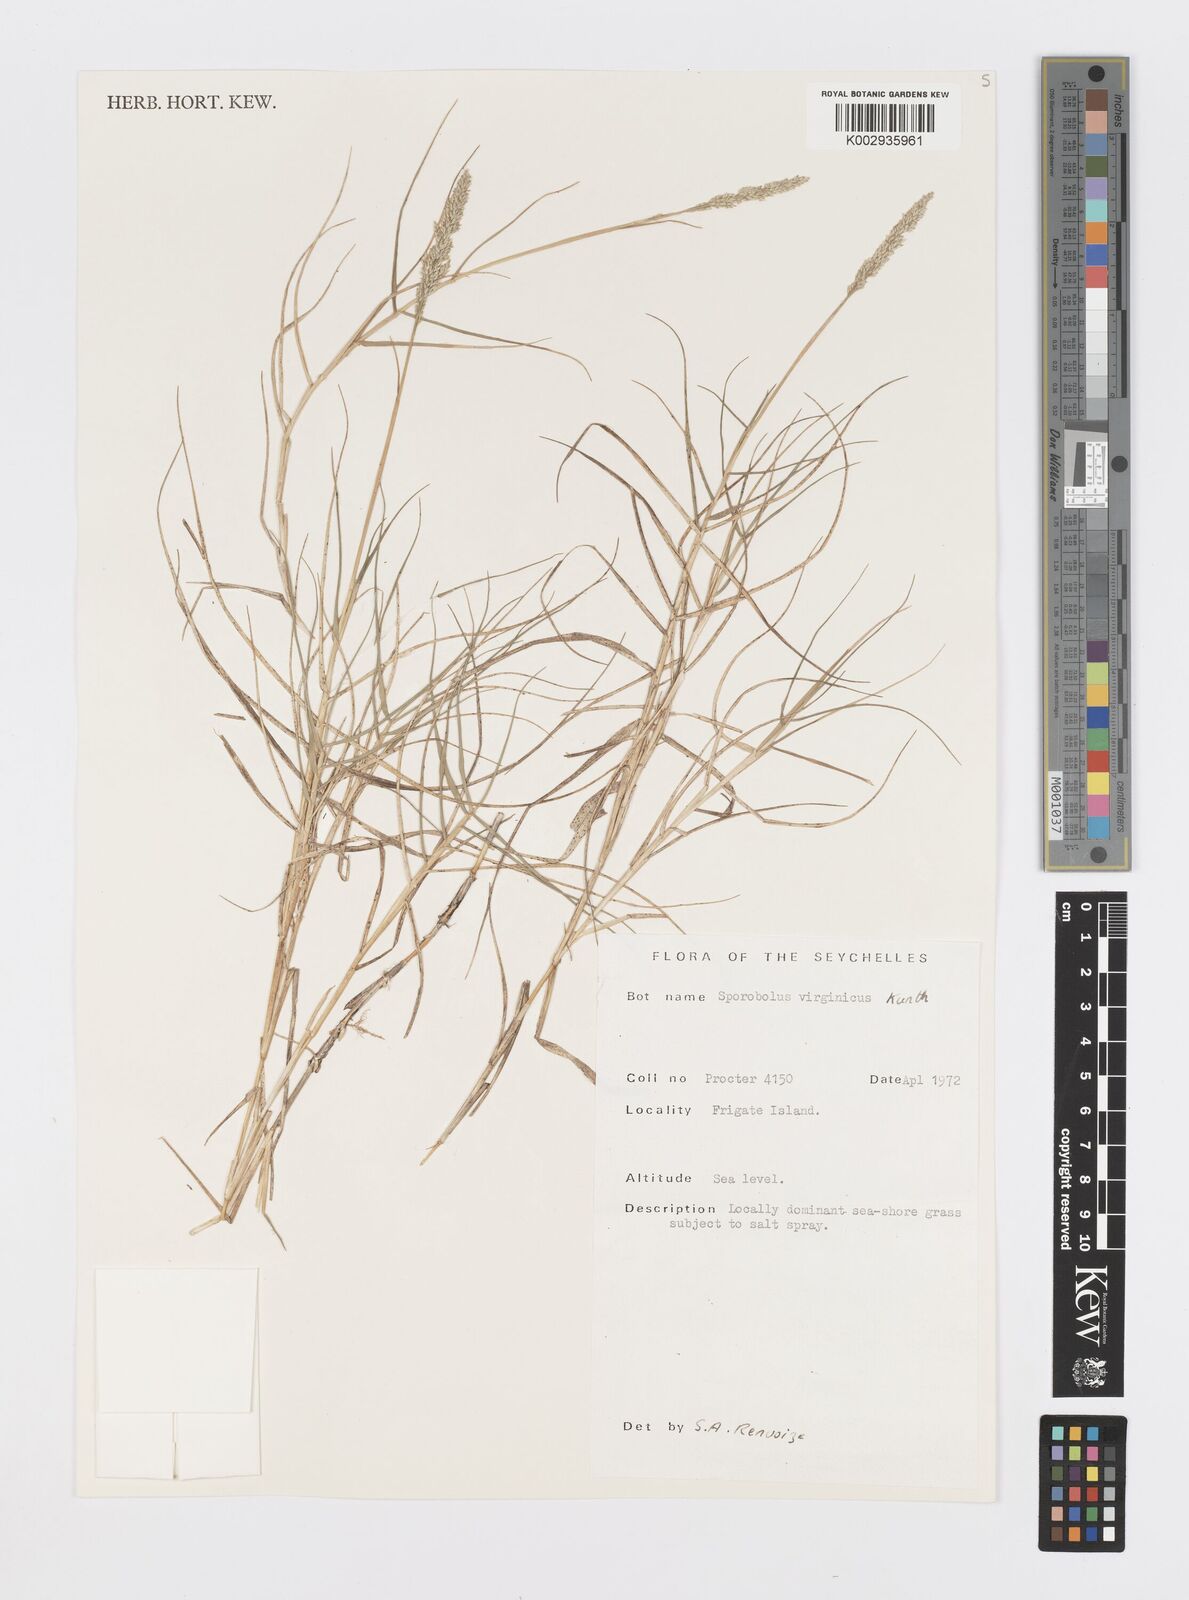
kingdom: Plantae
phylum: Tracheophyta
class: Liliopsida
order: Poales
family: Poaceae
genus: Sporobolus
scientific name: Sporobolus virginicus
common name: Beach dropseed
